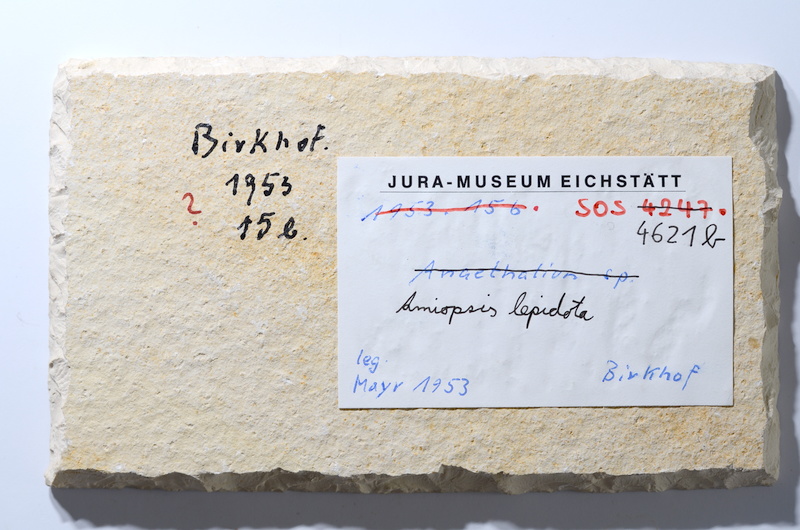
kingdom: Animalia
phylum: Chordata
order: Amiiformes
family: Amiidae
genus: Amiopsis
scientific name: Amiopsis lepidota
